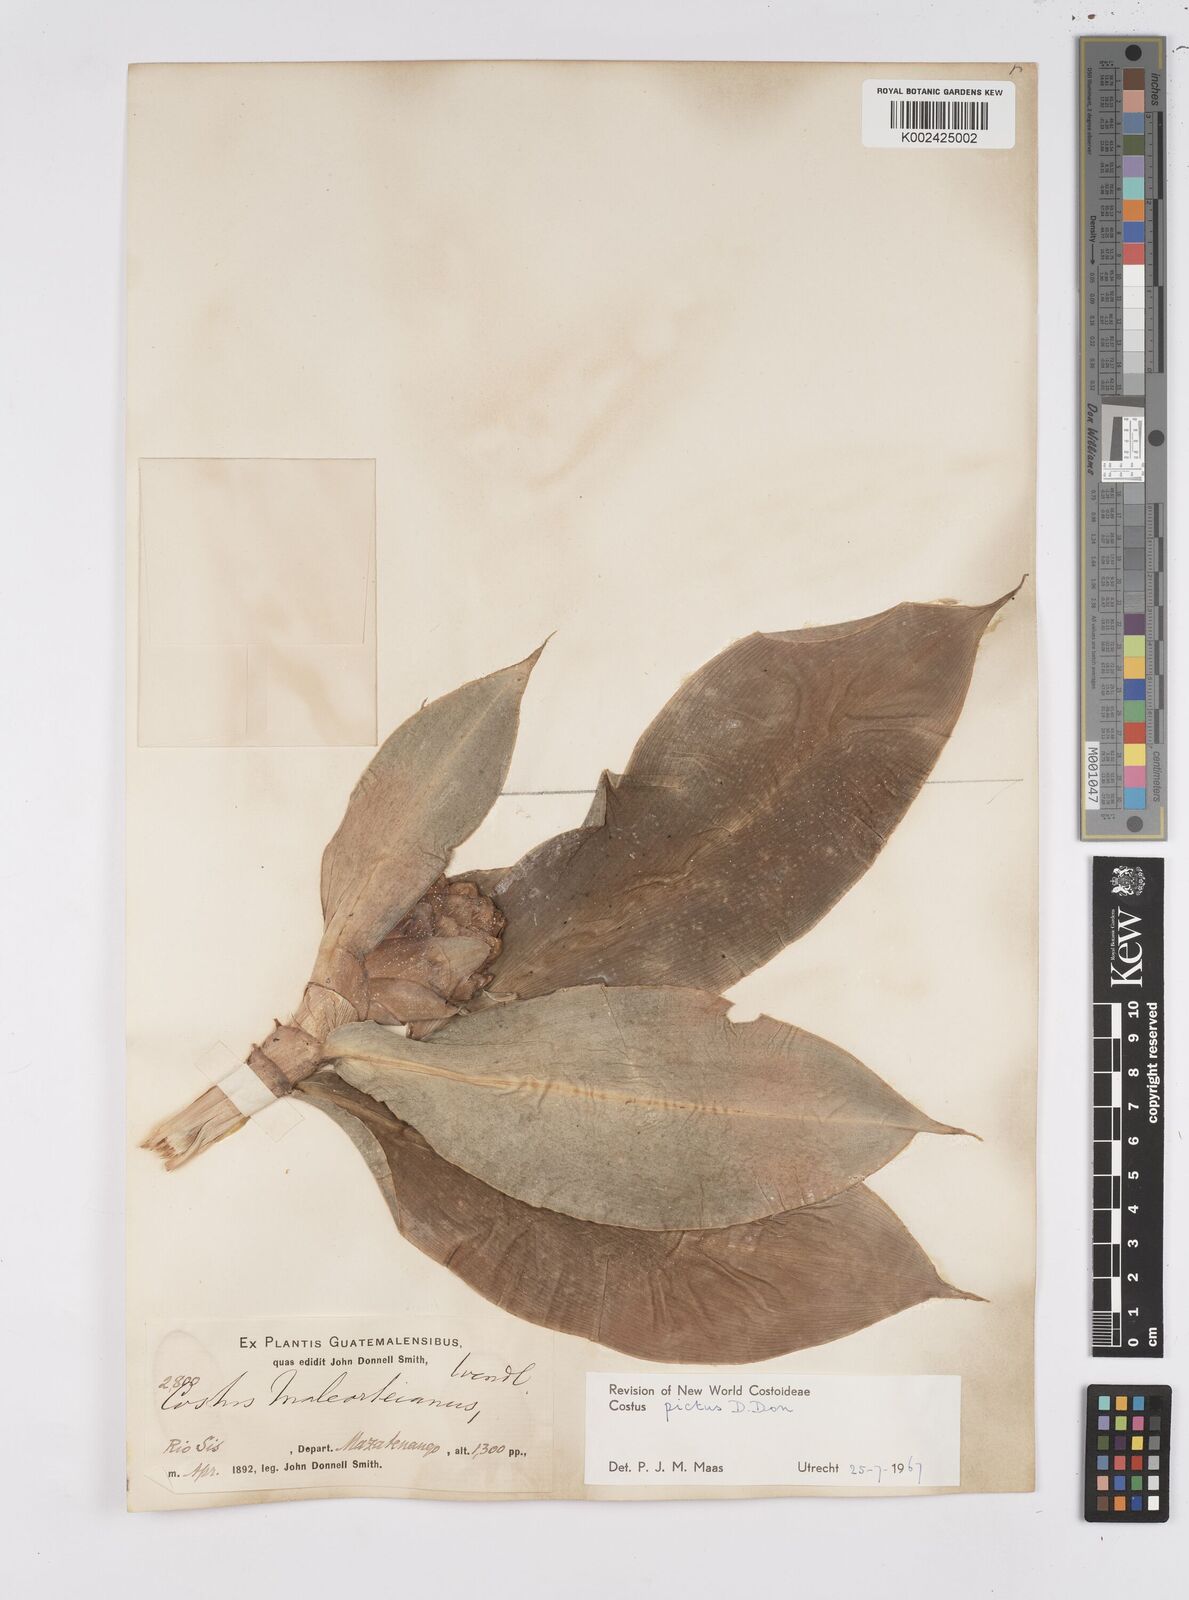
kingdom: Plantae
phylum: Tracheophyta
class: Liliopsida
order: Zingiberales
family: Costaceae
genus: Costus
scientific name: Costus pictus
